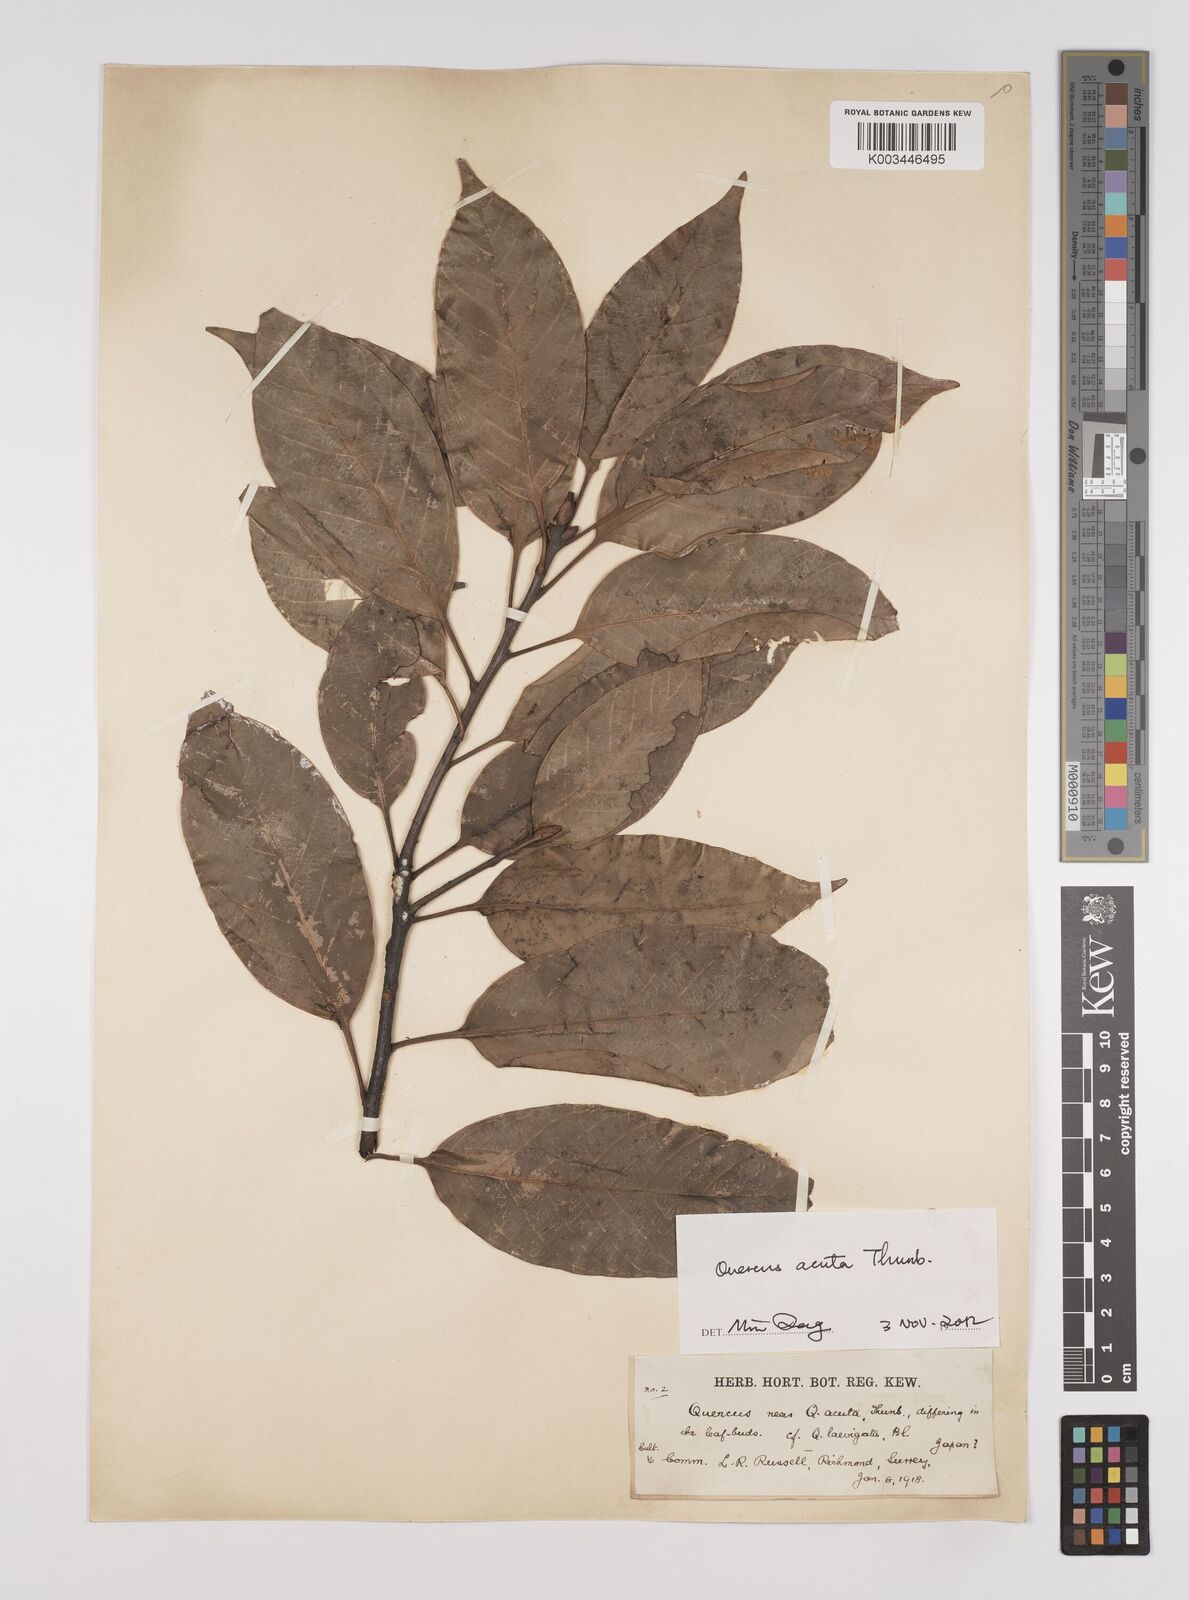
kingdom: Plantae
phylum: Tracheophyta
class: Magnoliopsida
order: Fagales
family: Fagaceae
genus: Quercus
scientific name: Quercus coccinea
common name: Scarlet oak
